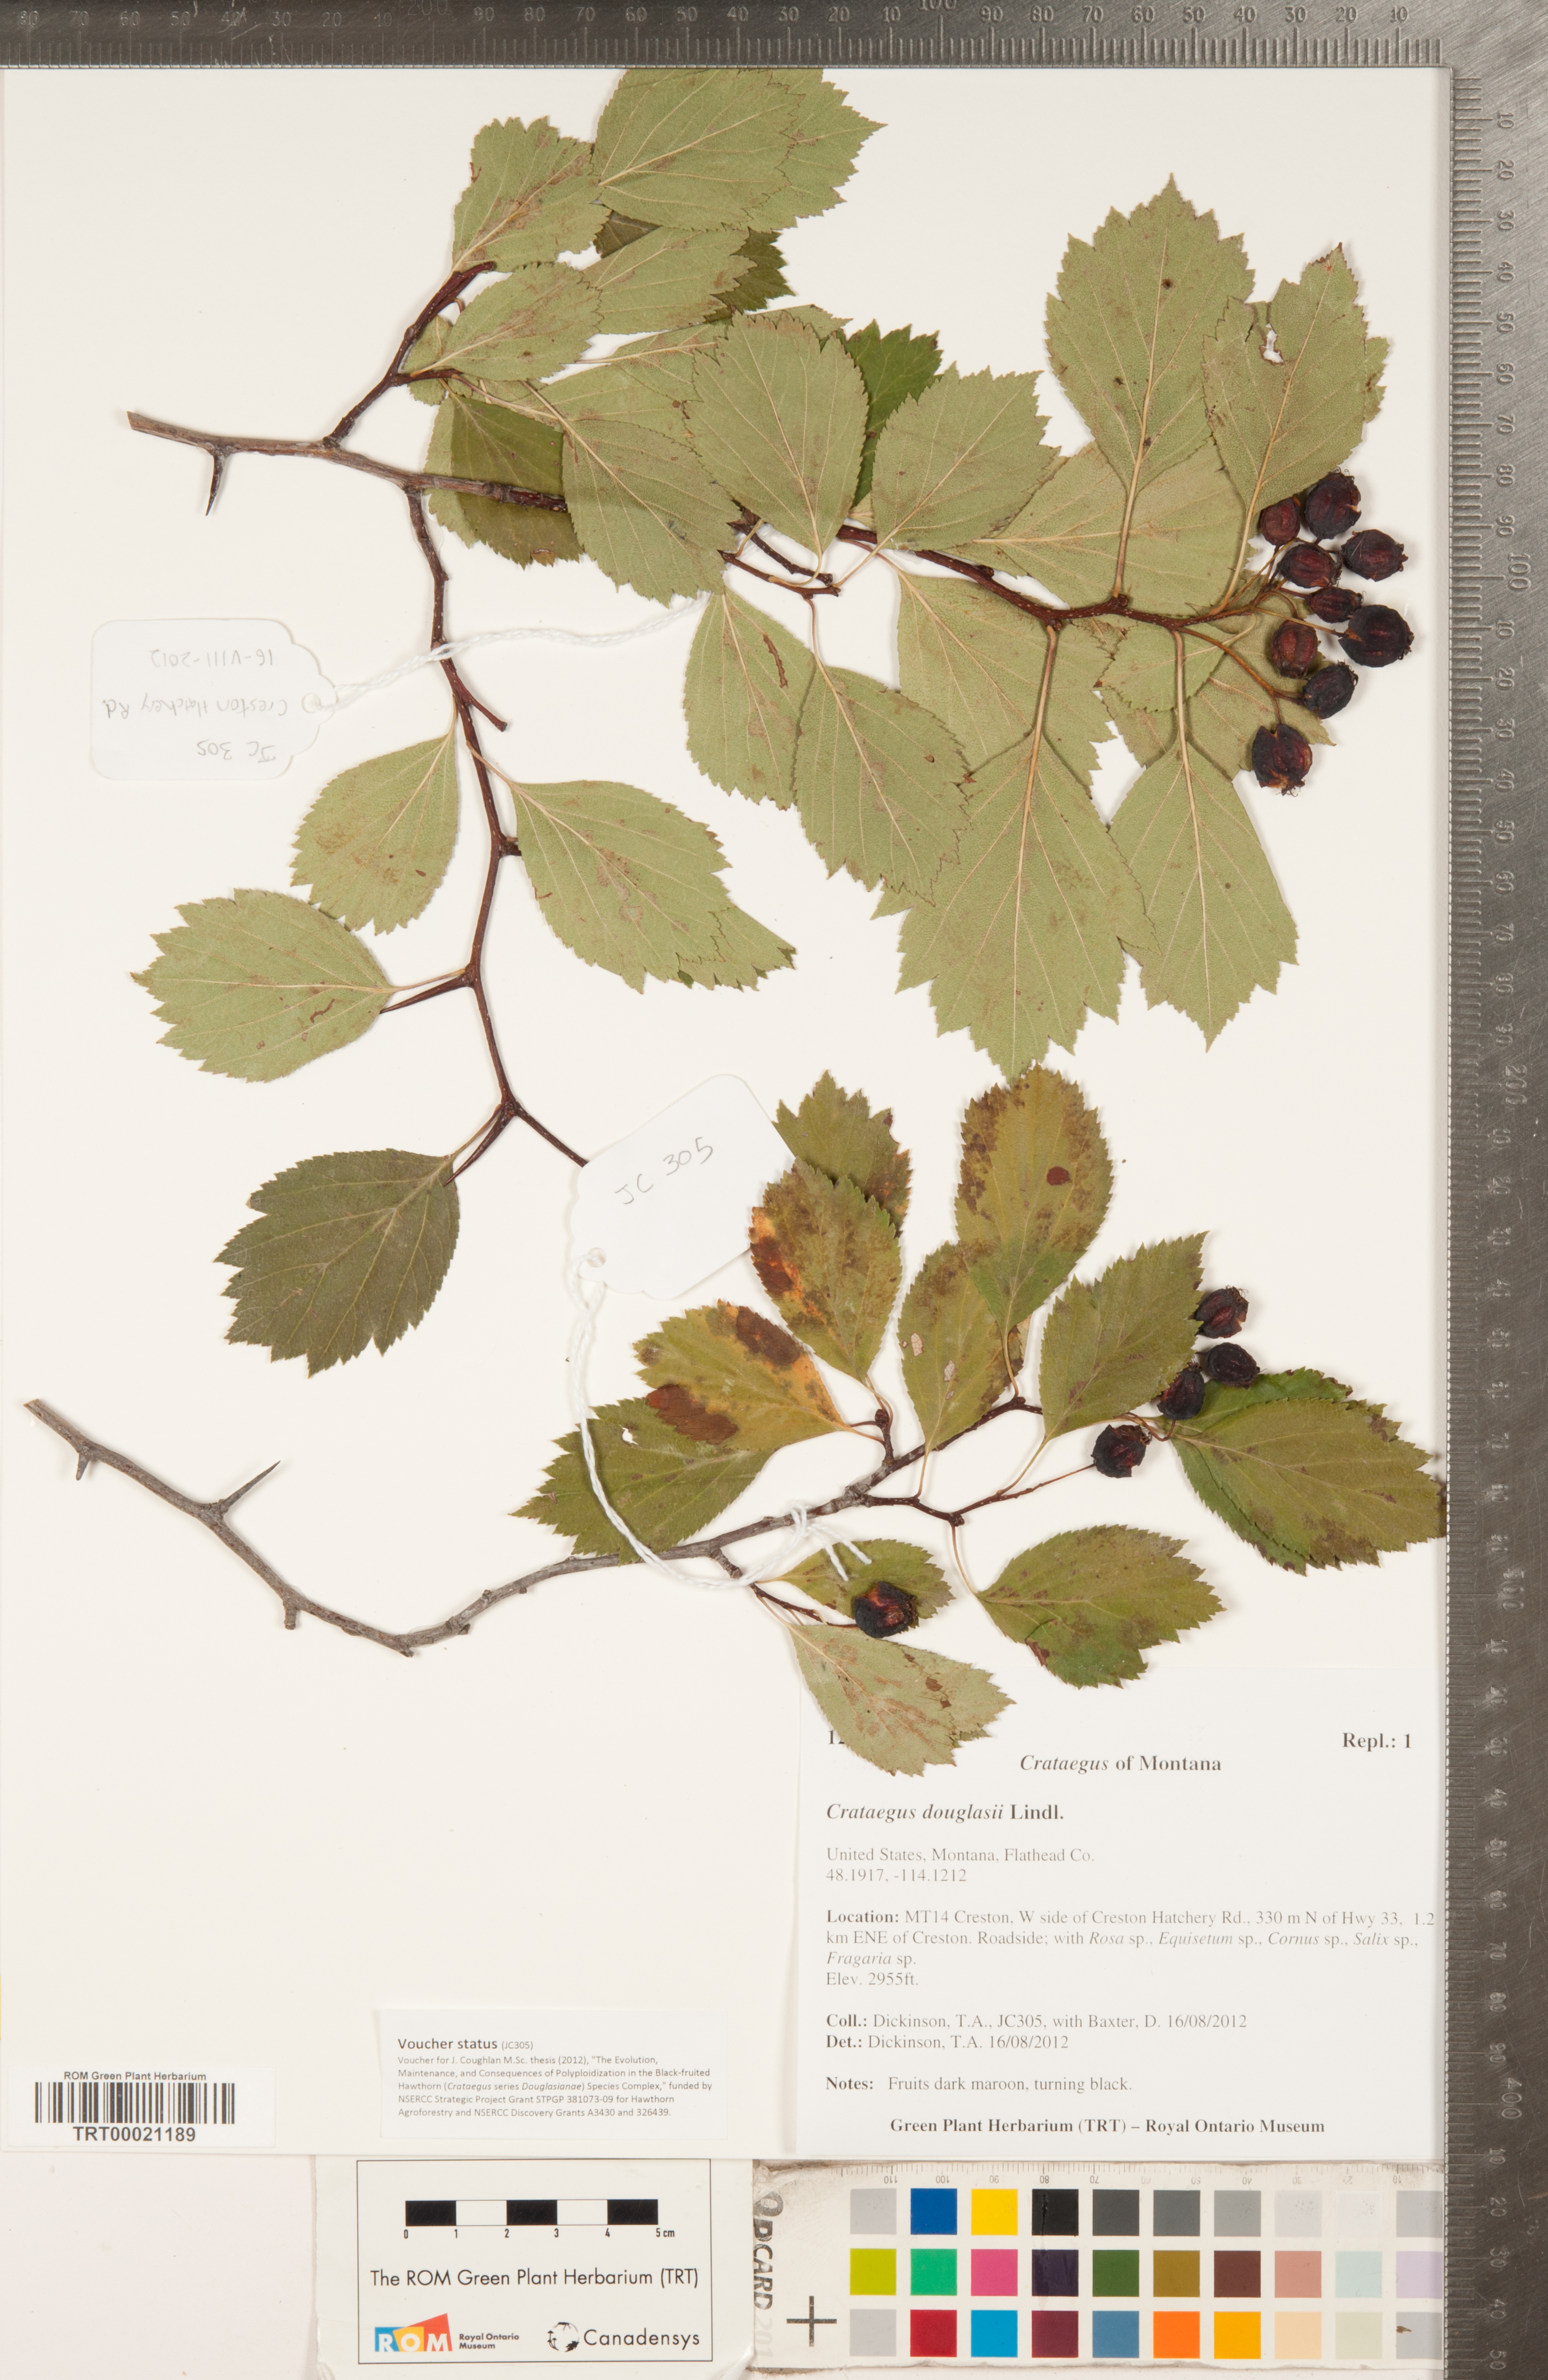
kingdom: Plantae
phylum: Tracheophyta
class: Magnoliopsida
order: Rosales
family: Rosaceae
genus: Crataegus
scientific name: Crataegus douglasii
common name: Black hawthorn
